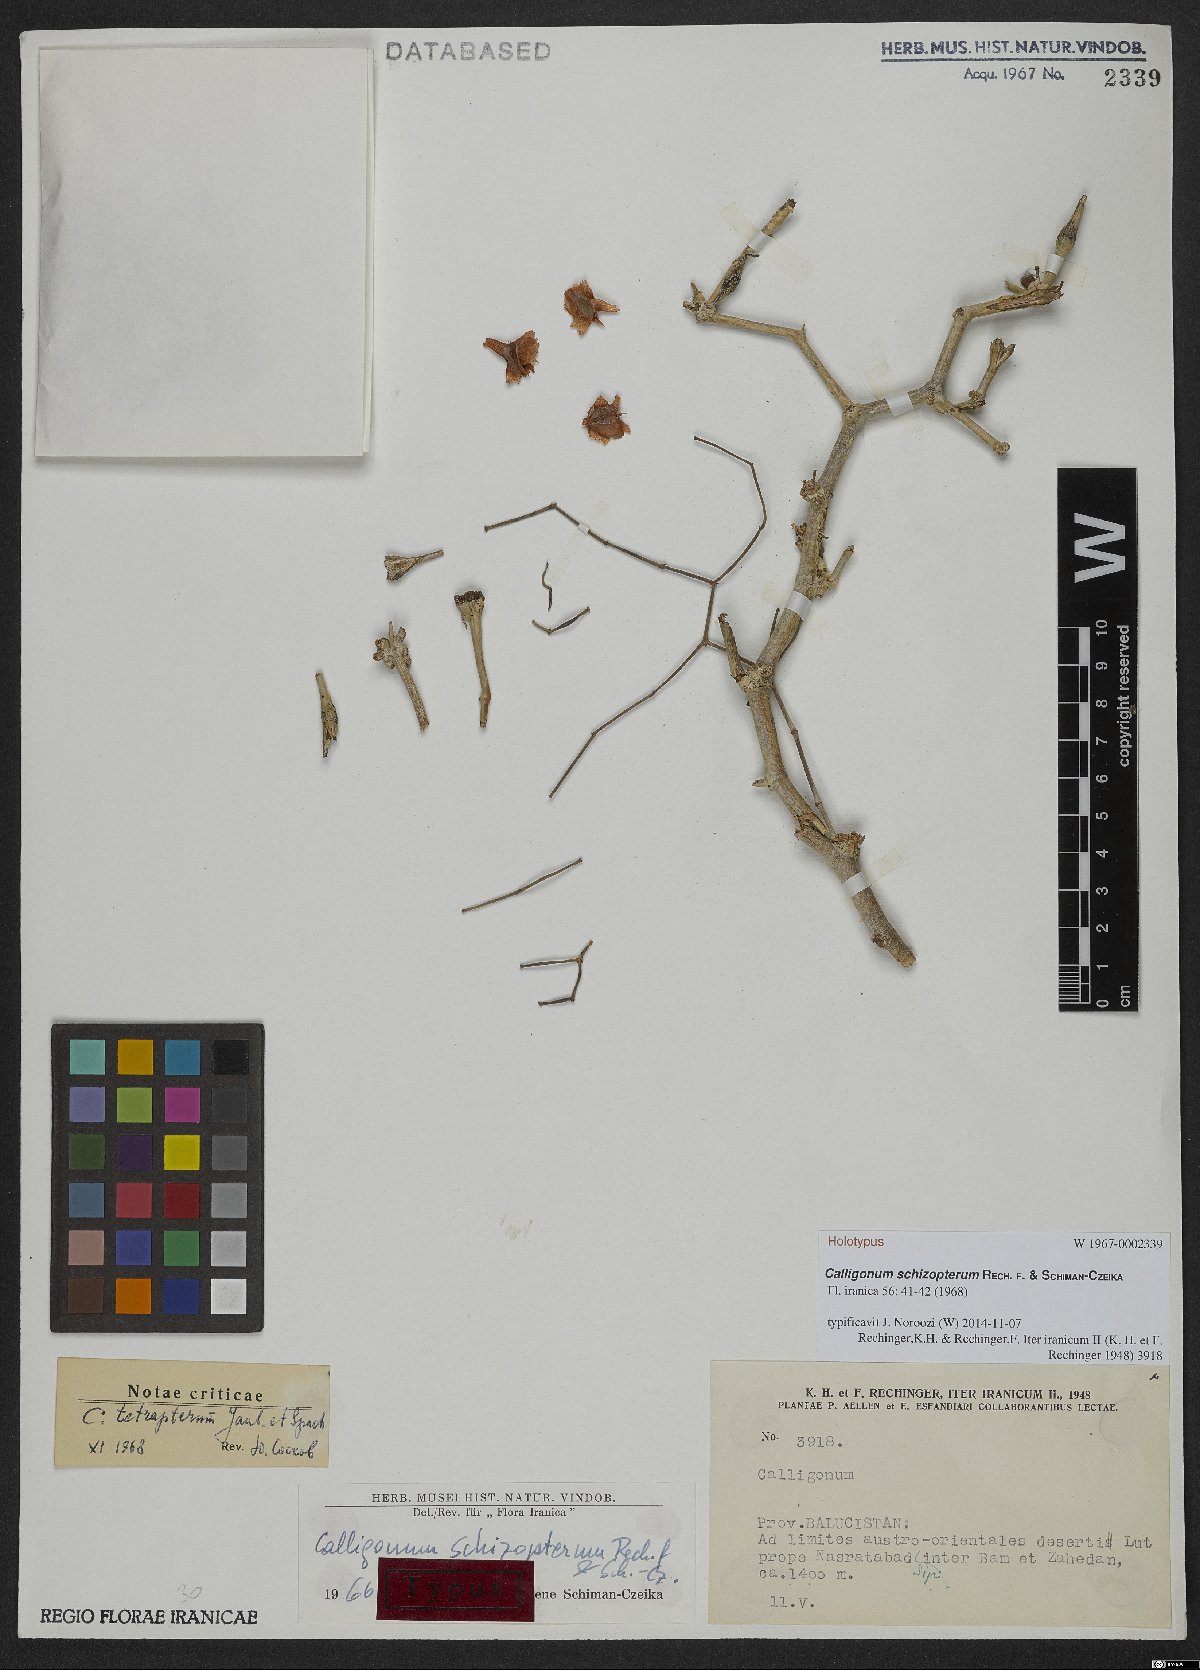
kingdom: Plantae
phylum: Tracheophyta
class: Magnoliopsida
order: Caryophyllales
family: Polygonaceae
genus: Calligonum
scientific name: Calligonum schizopterum
